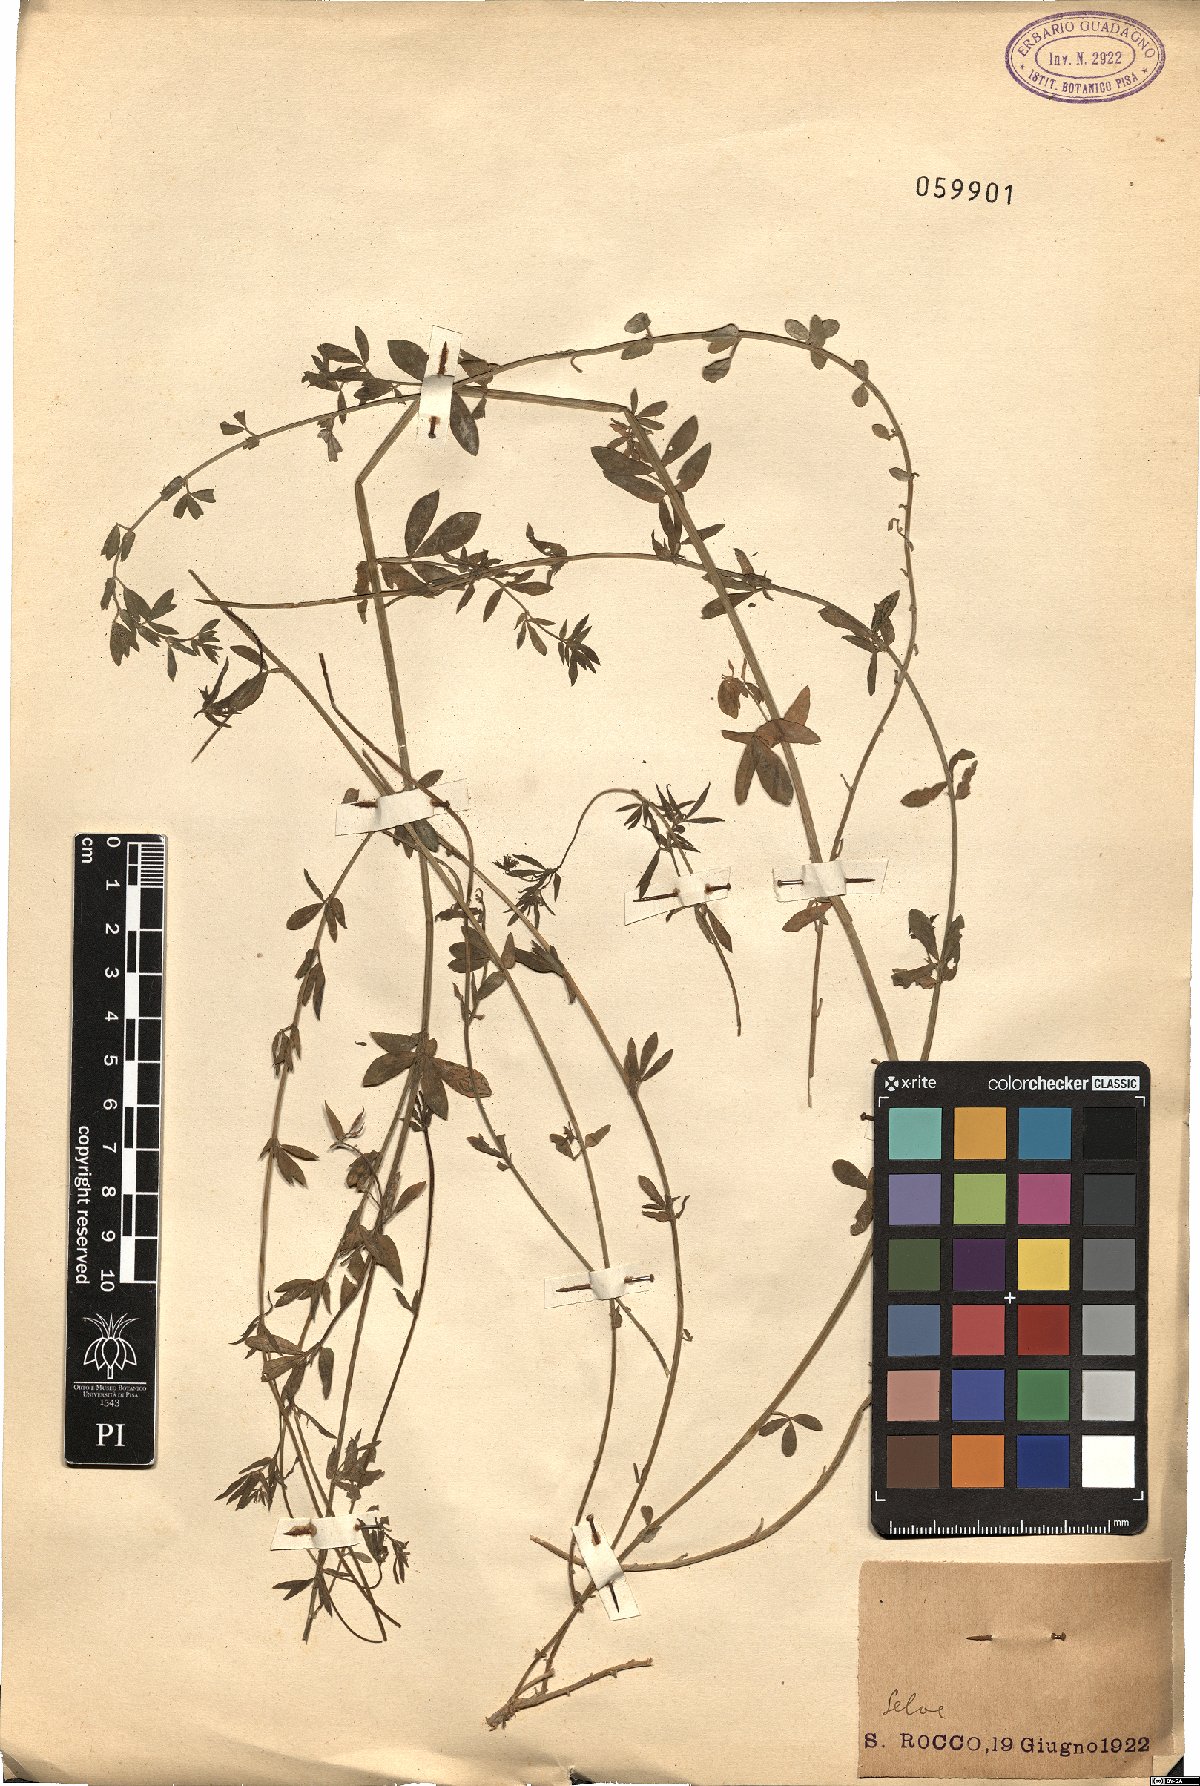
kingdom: Plantae
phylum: Tracheophyta
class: Magnoliopsida
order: Fabales
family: Fabaceae
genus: Lotus
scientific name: Lotus
